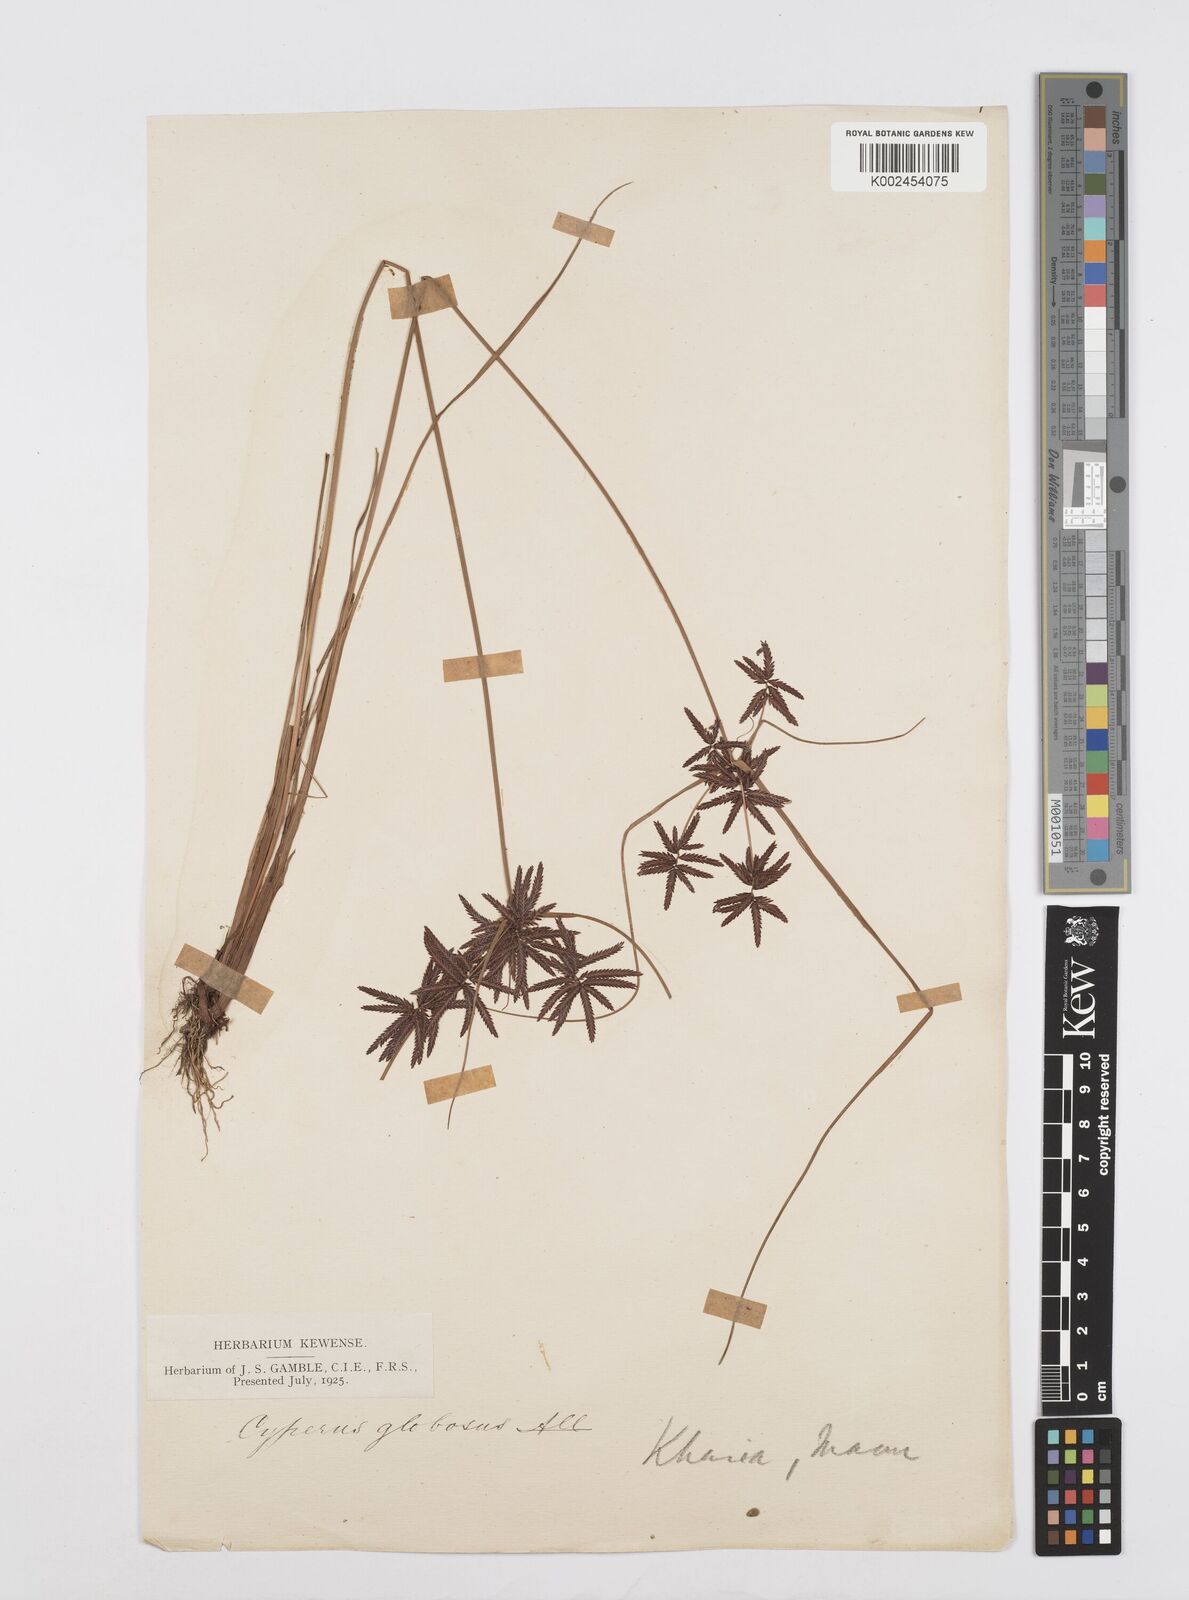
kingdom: Plantae
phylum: Tracheophyta
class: Liliopsida
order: Poales
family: Cyperaceae
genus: Cyperus
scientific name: Cyperus flavidus
